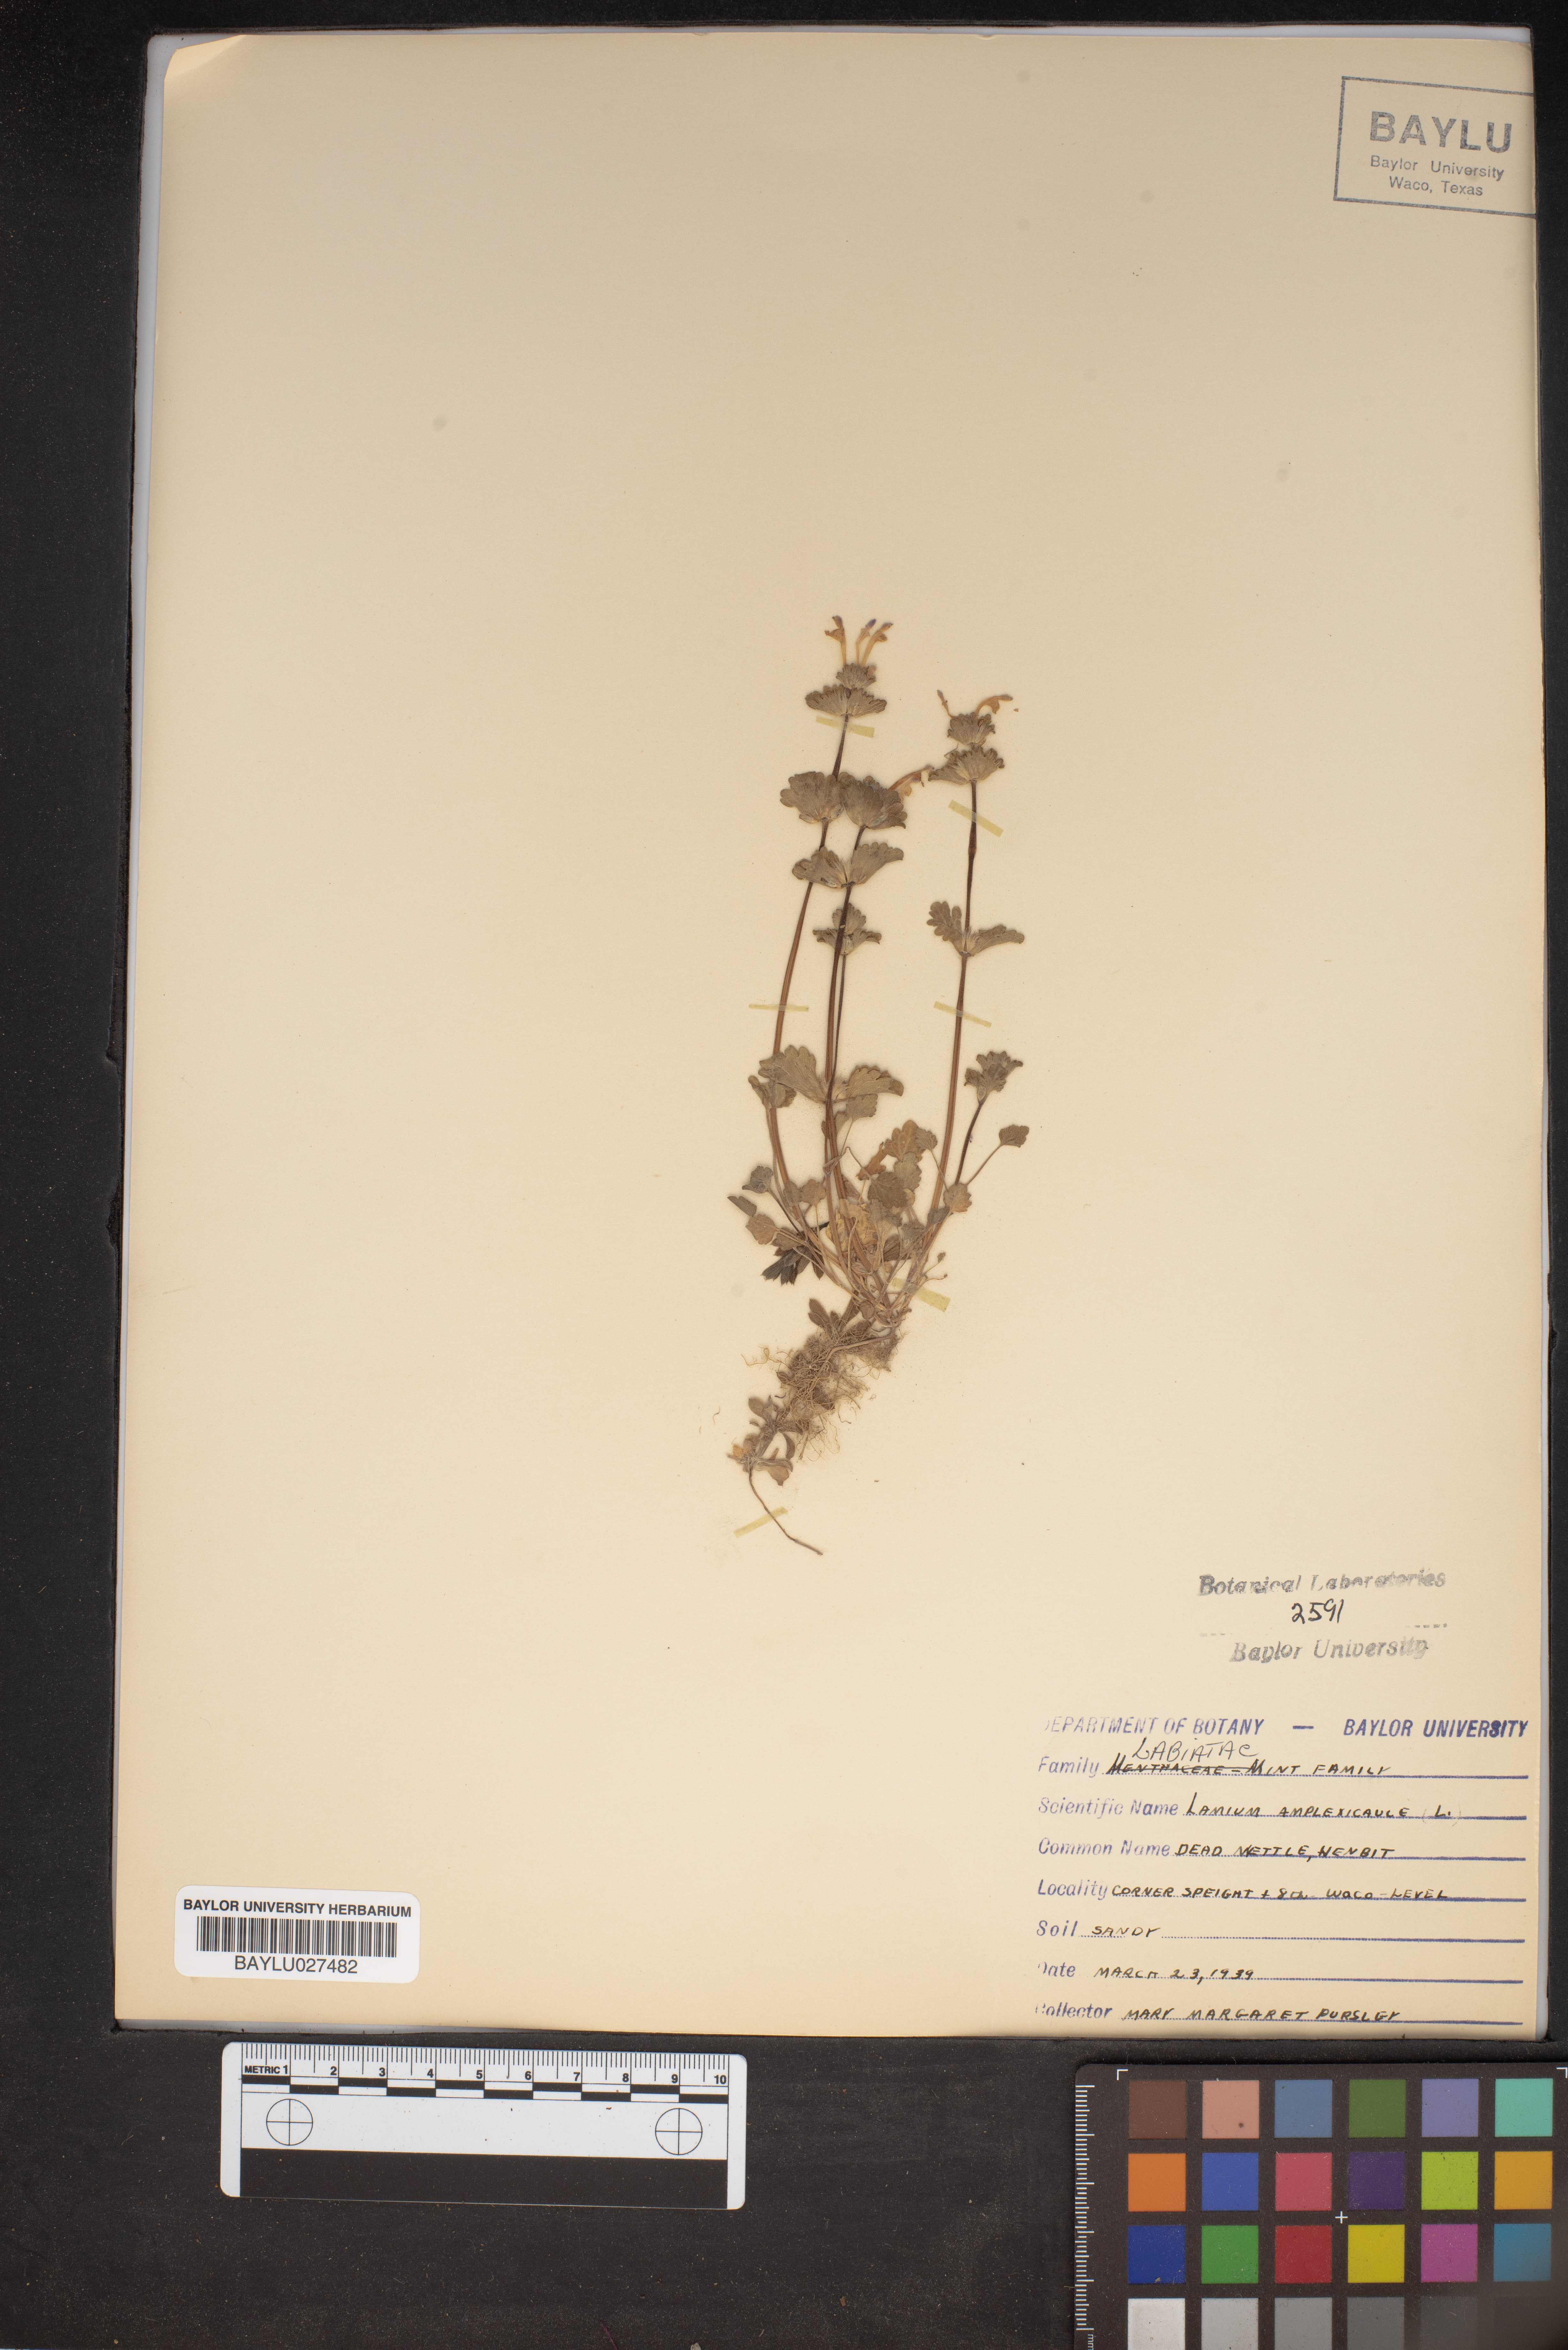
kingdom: Plantae
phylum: Tracheophyta
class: Magnoliopsida
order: Lamiales
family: Lamiaceae
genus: Lamium
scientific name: Lamium amplexicaule
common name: Henbit dead-nettle
